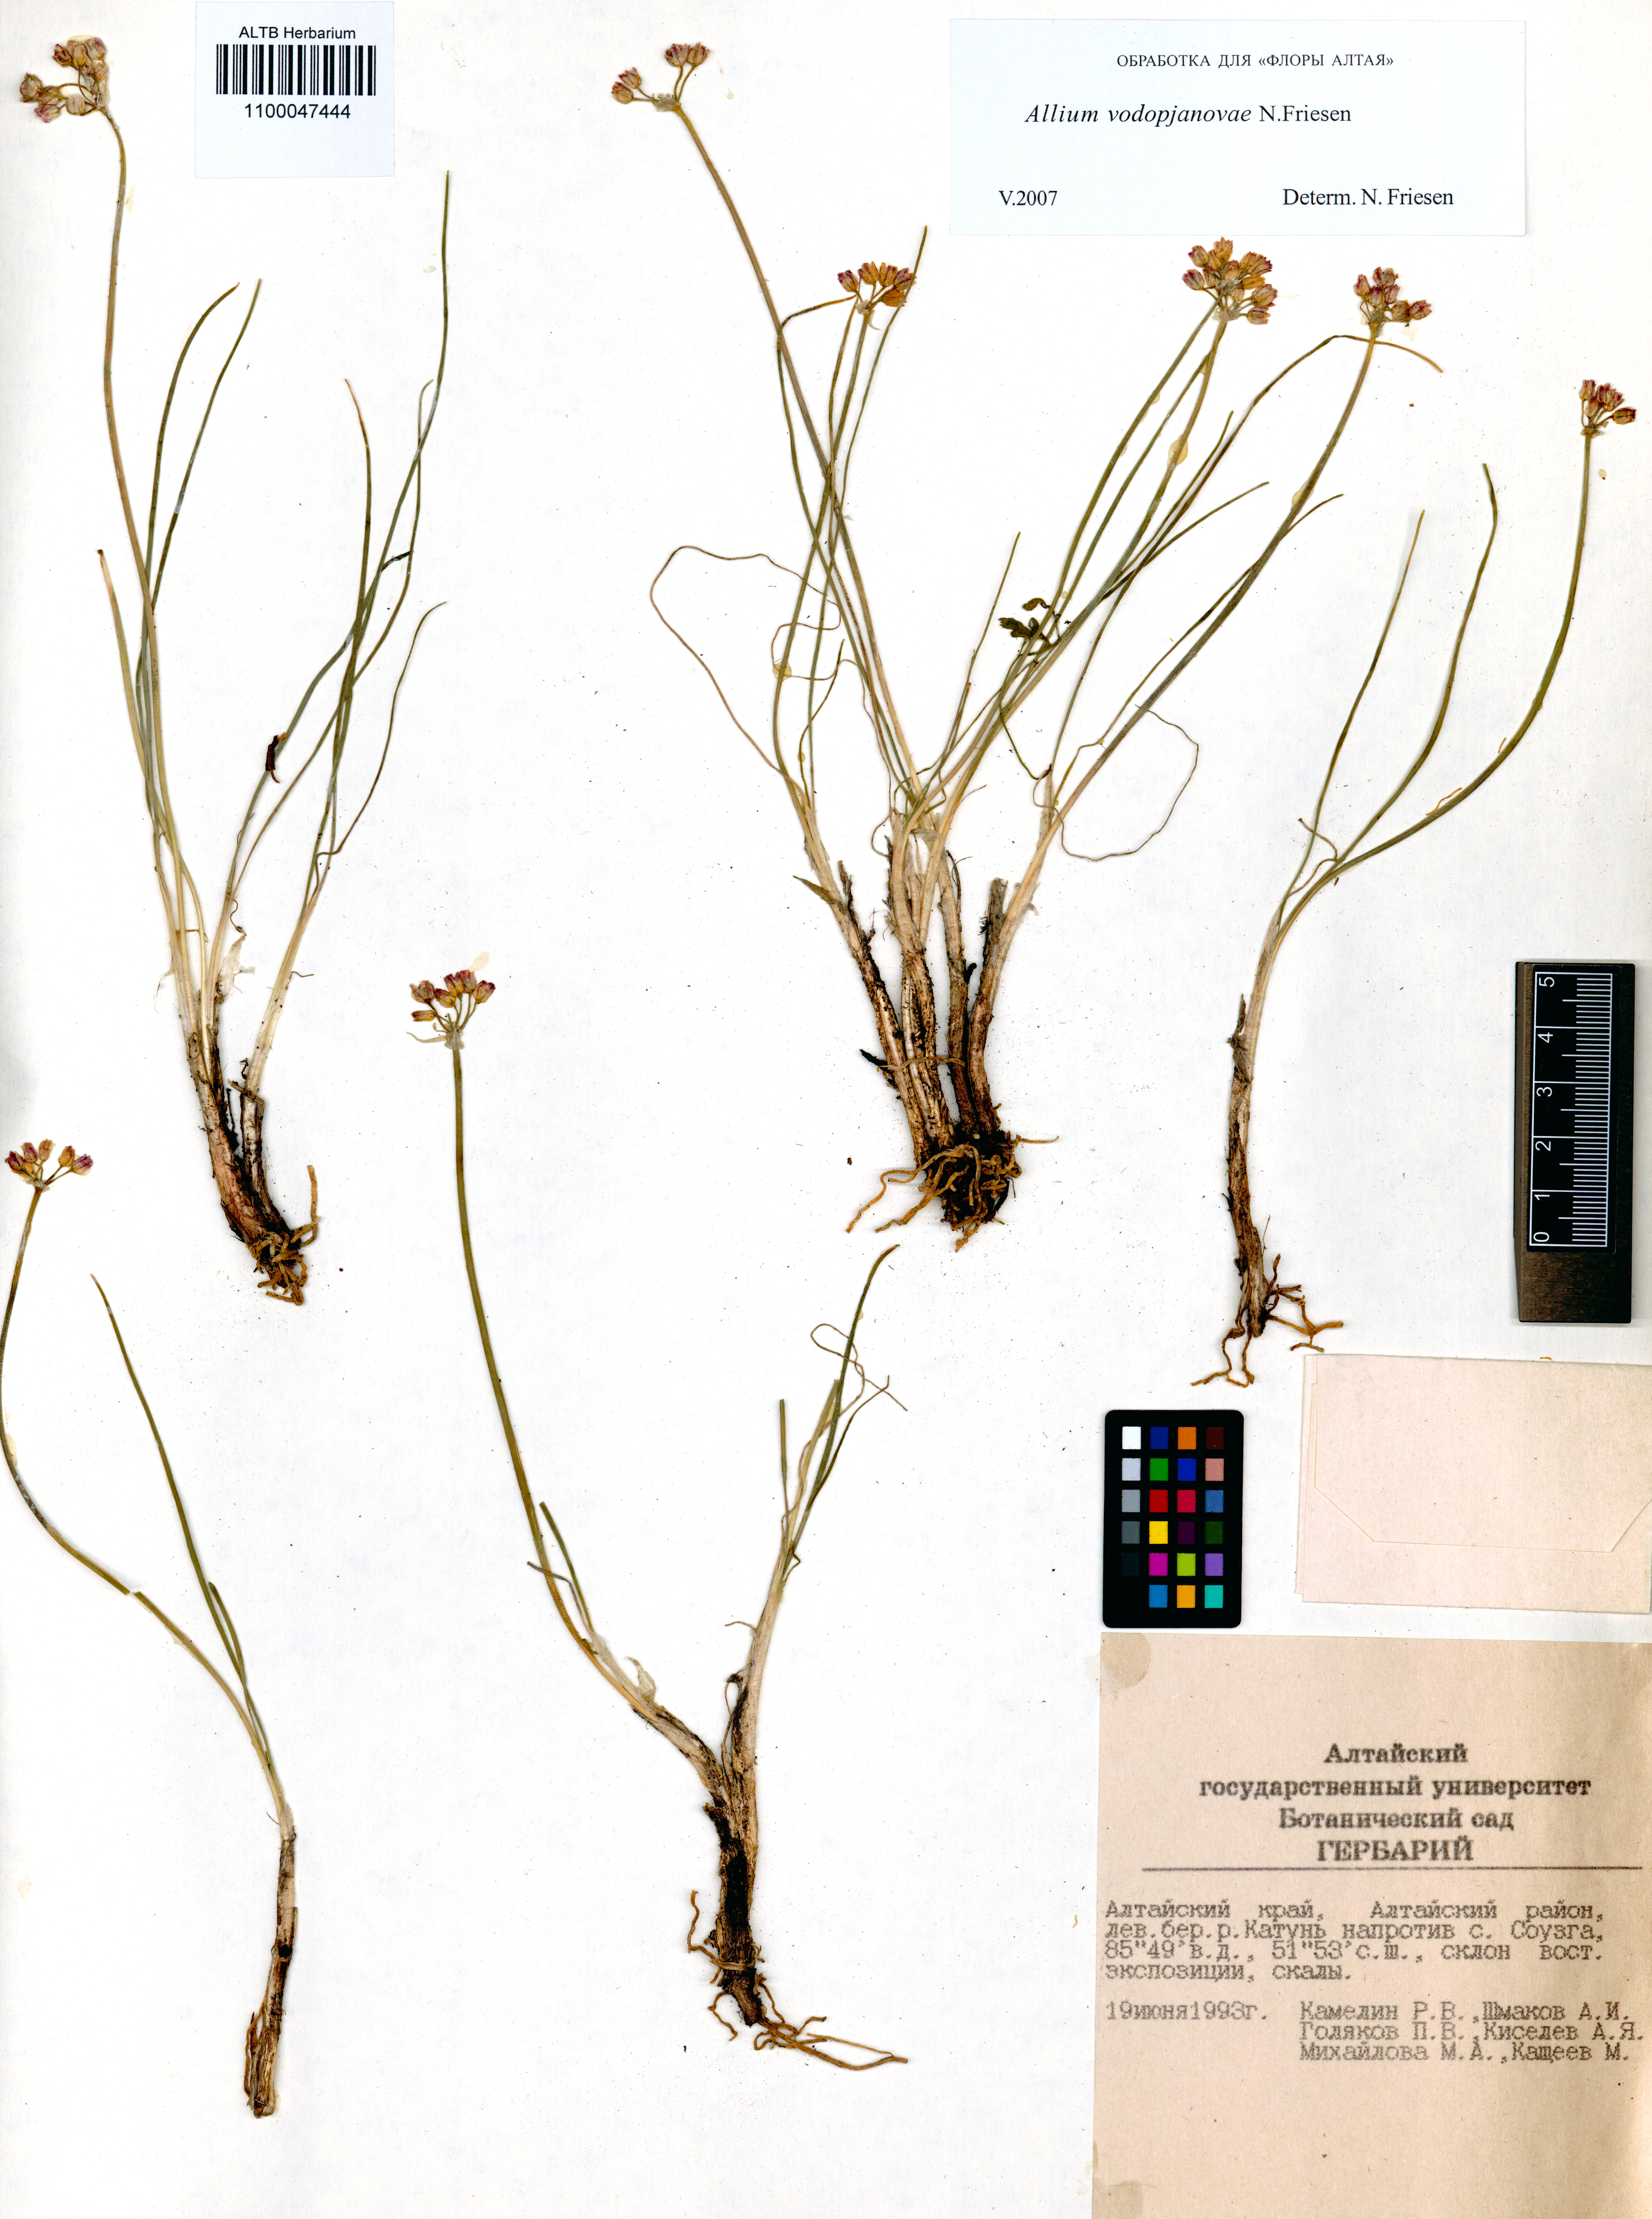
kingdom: Plantae
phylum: Tracheophyta
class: Liliopsida
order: Asparagales
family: Amaryllidaceae
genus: Allium
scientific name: Allium vodopjanovae
